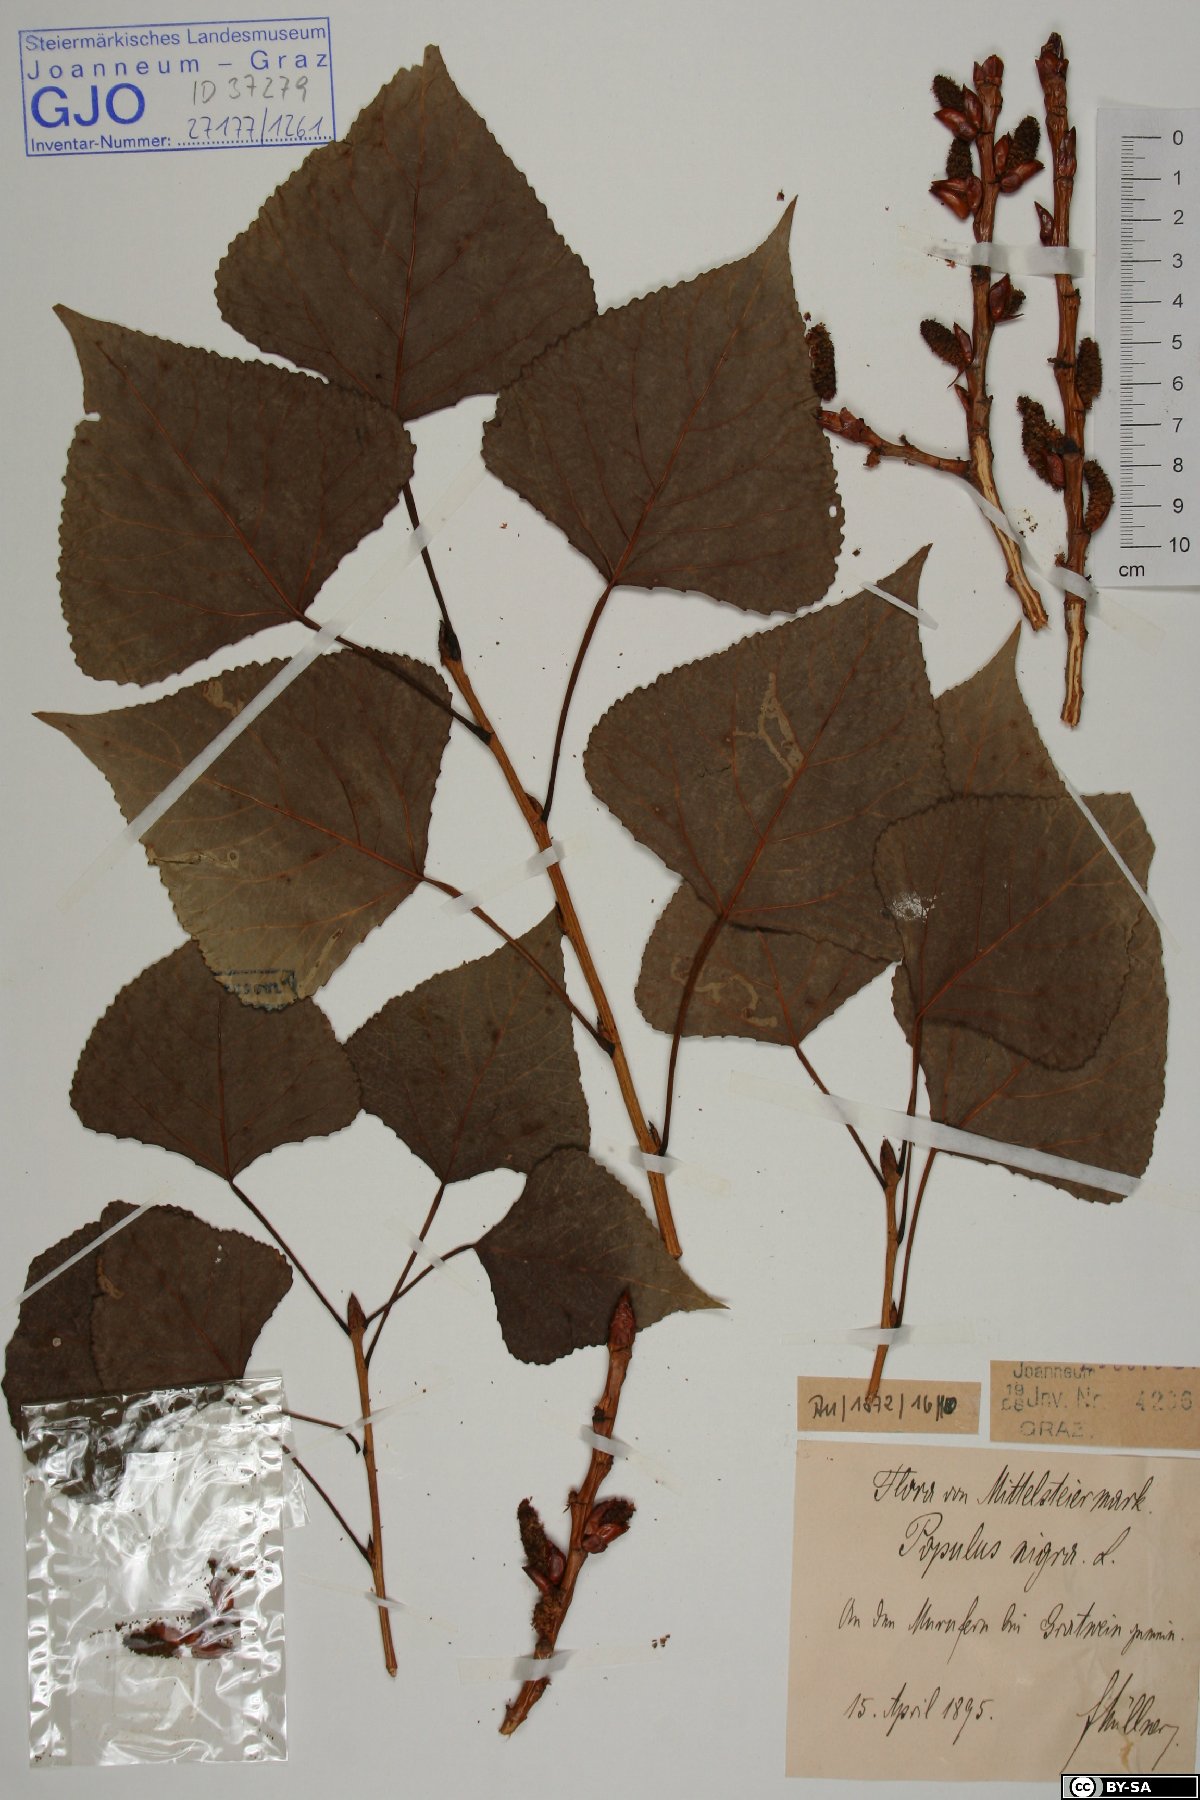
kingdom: Plantae
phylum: Tracheophyta
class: Magnoliopsida
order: Malpighiales
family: Salicaceae
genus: Populus
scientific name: Populus nigra
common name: Black poplar
